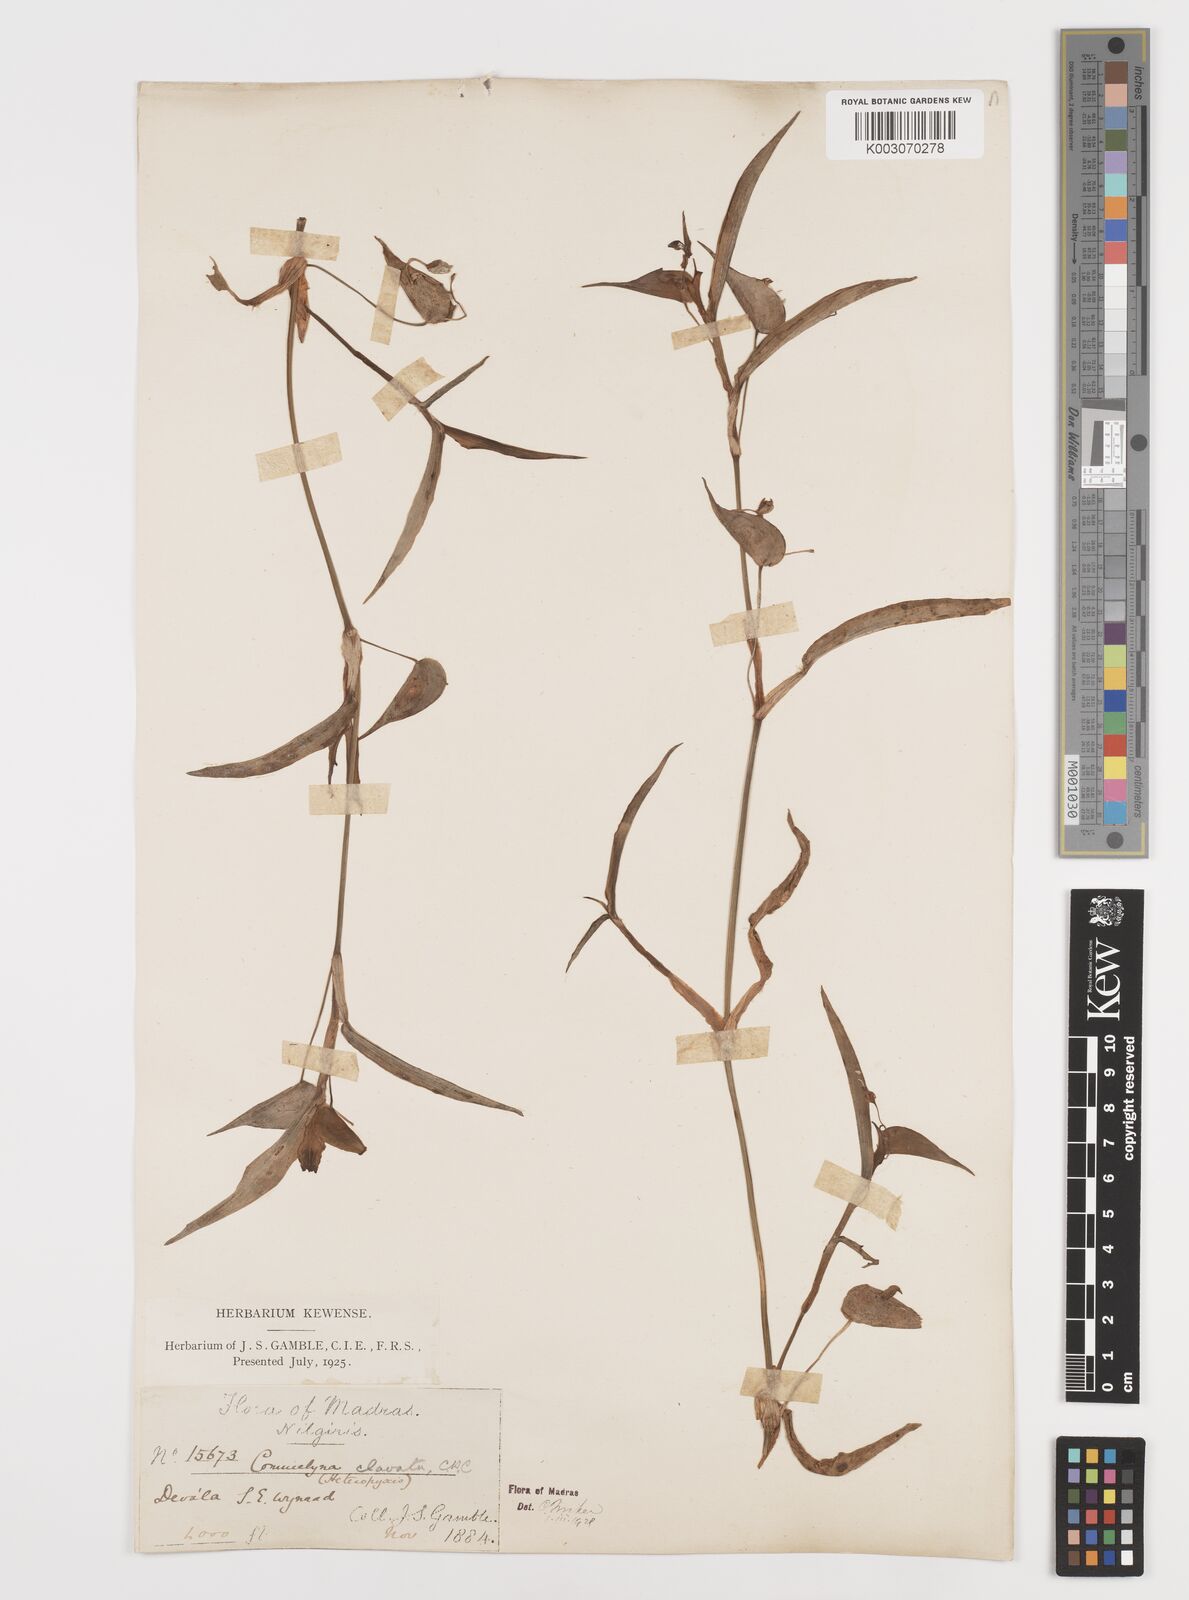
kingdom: Plantae
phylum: Tracheophyta
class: Liliopsida
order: Commelinales
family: Commelinaceae
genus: Commelina
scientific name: Commelina clavata
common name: Willow leaved dayflower
